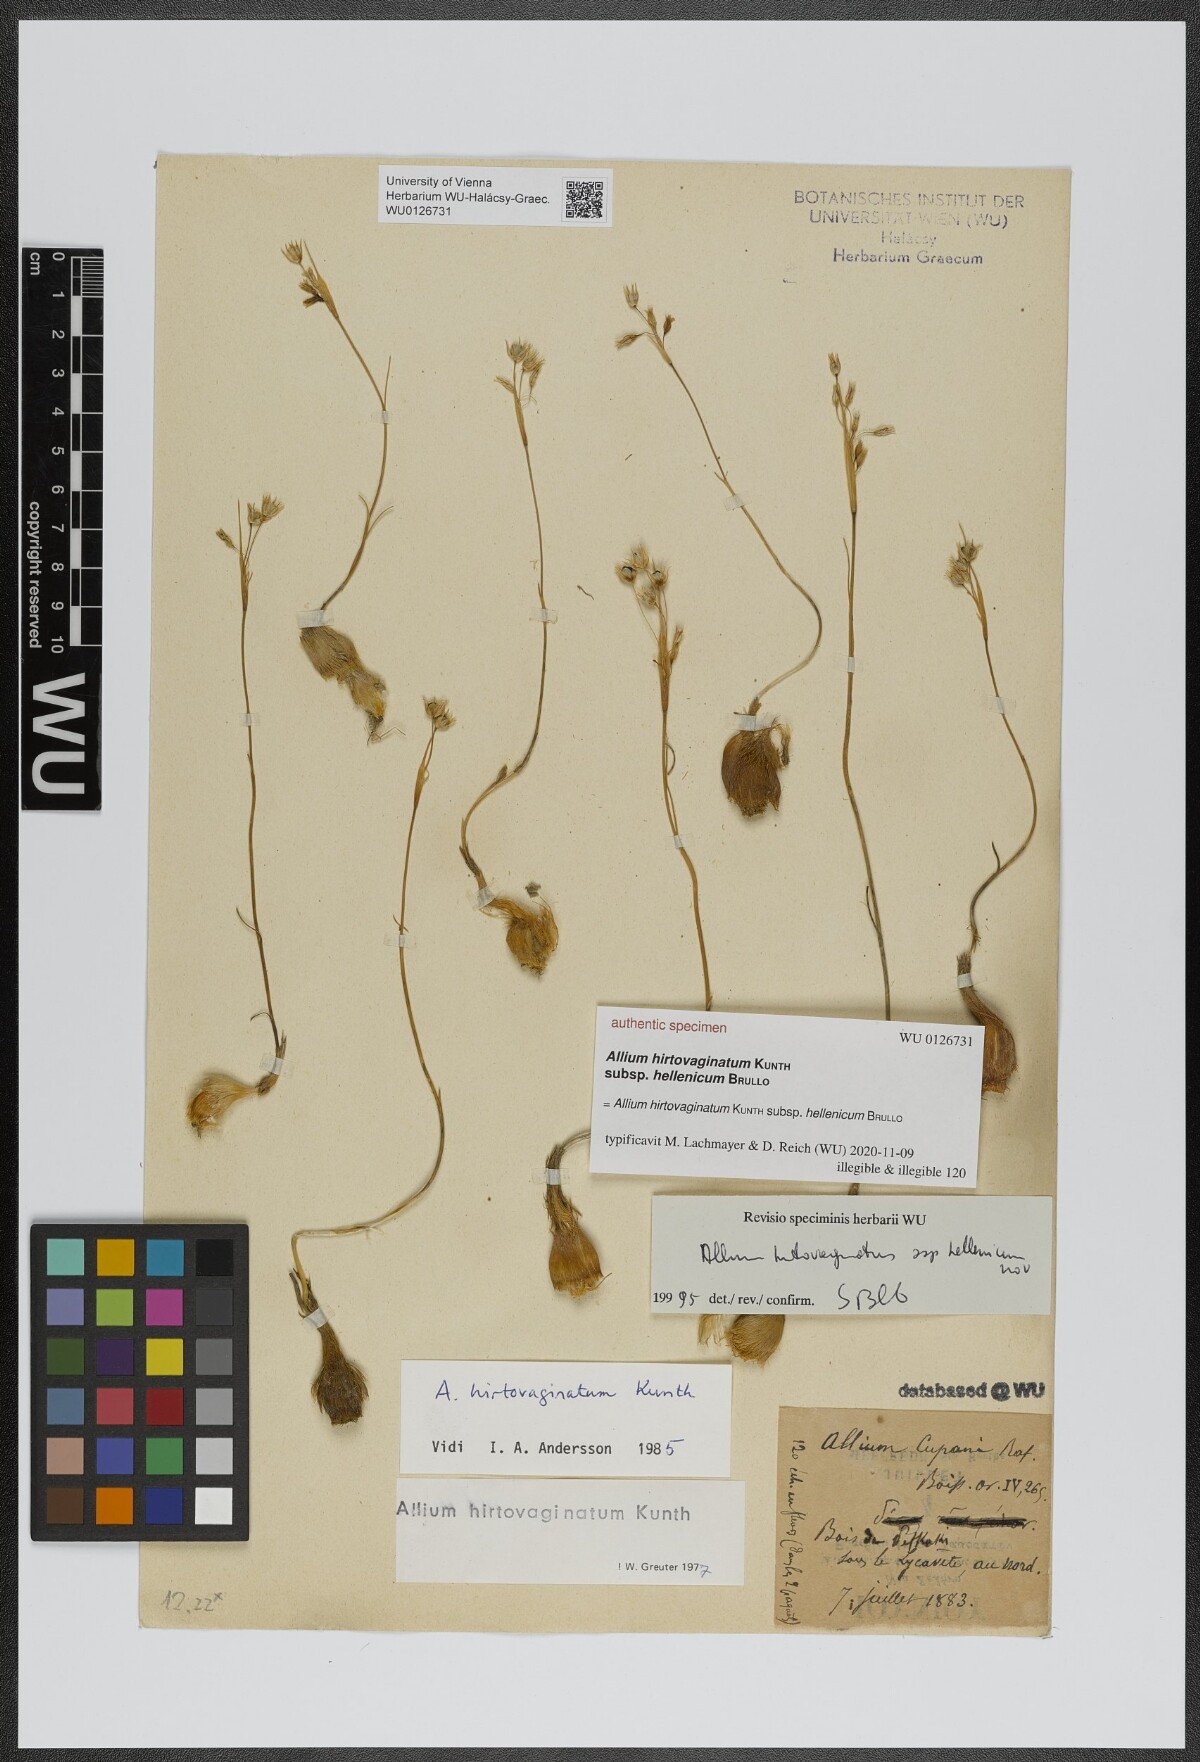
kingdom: Plantae
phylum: Tracheophyta
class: Liliopsida
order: Asparagales
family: Amaryllidaceae
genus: Allium
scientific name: Allium cupani
